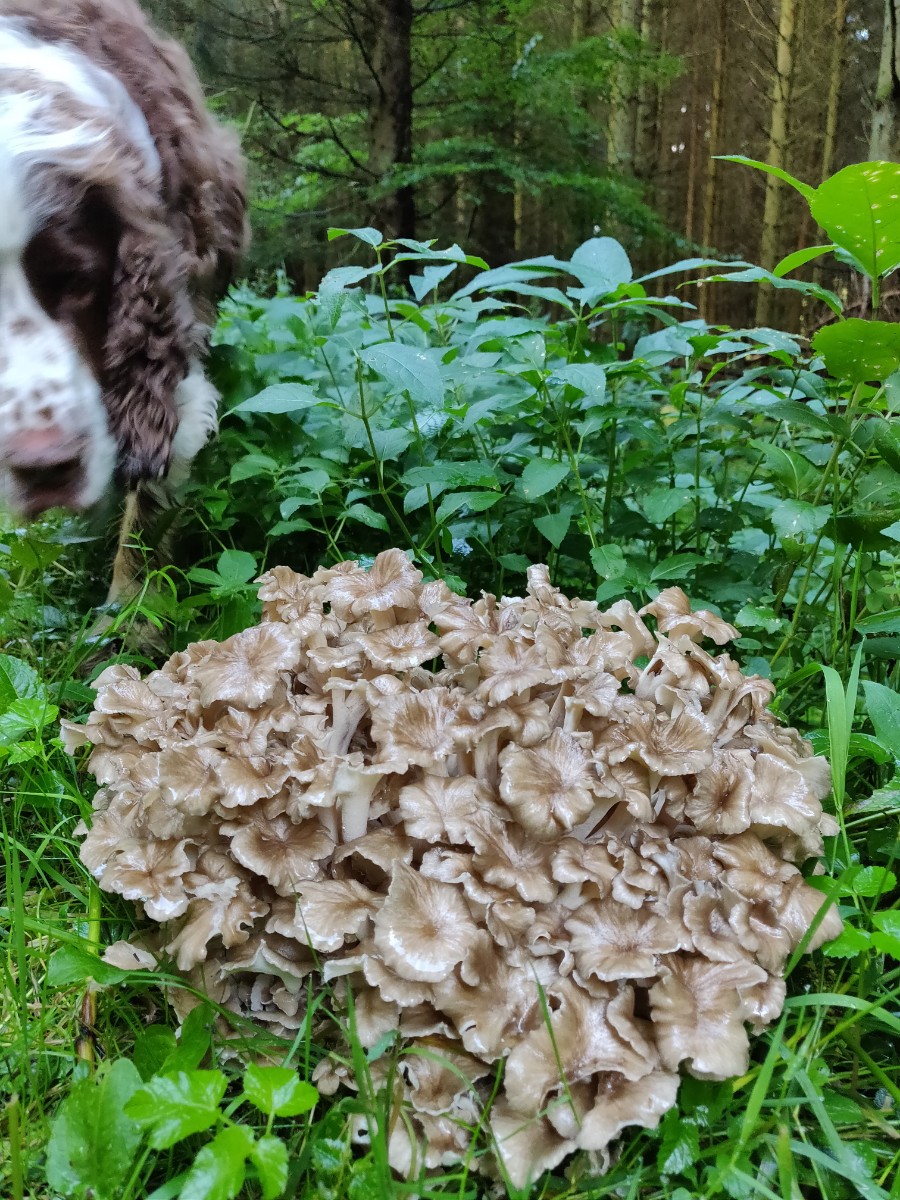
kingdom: Fungi
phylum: Basidiomycota
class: Agaricomycetes
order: Polyporales
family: Polyporaceae
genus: Polyporus
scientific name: Polyporus umbellatus
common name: skærmformet stilkporesvamp
